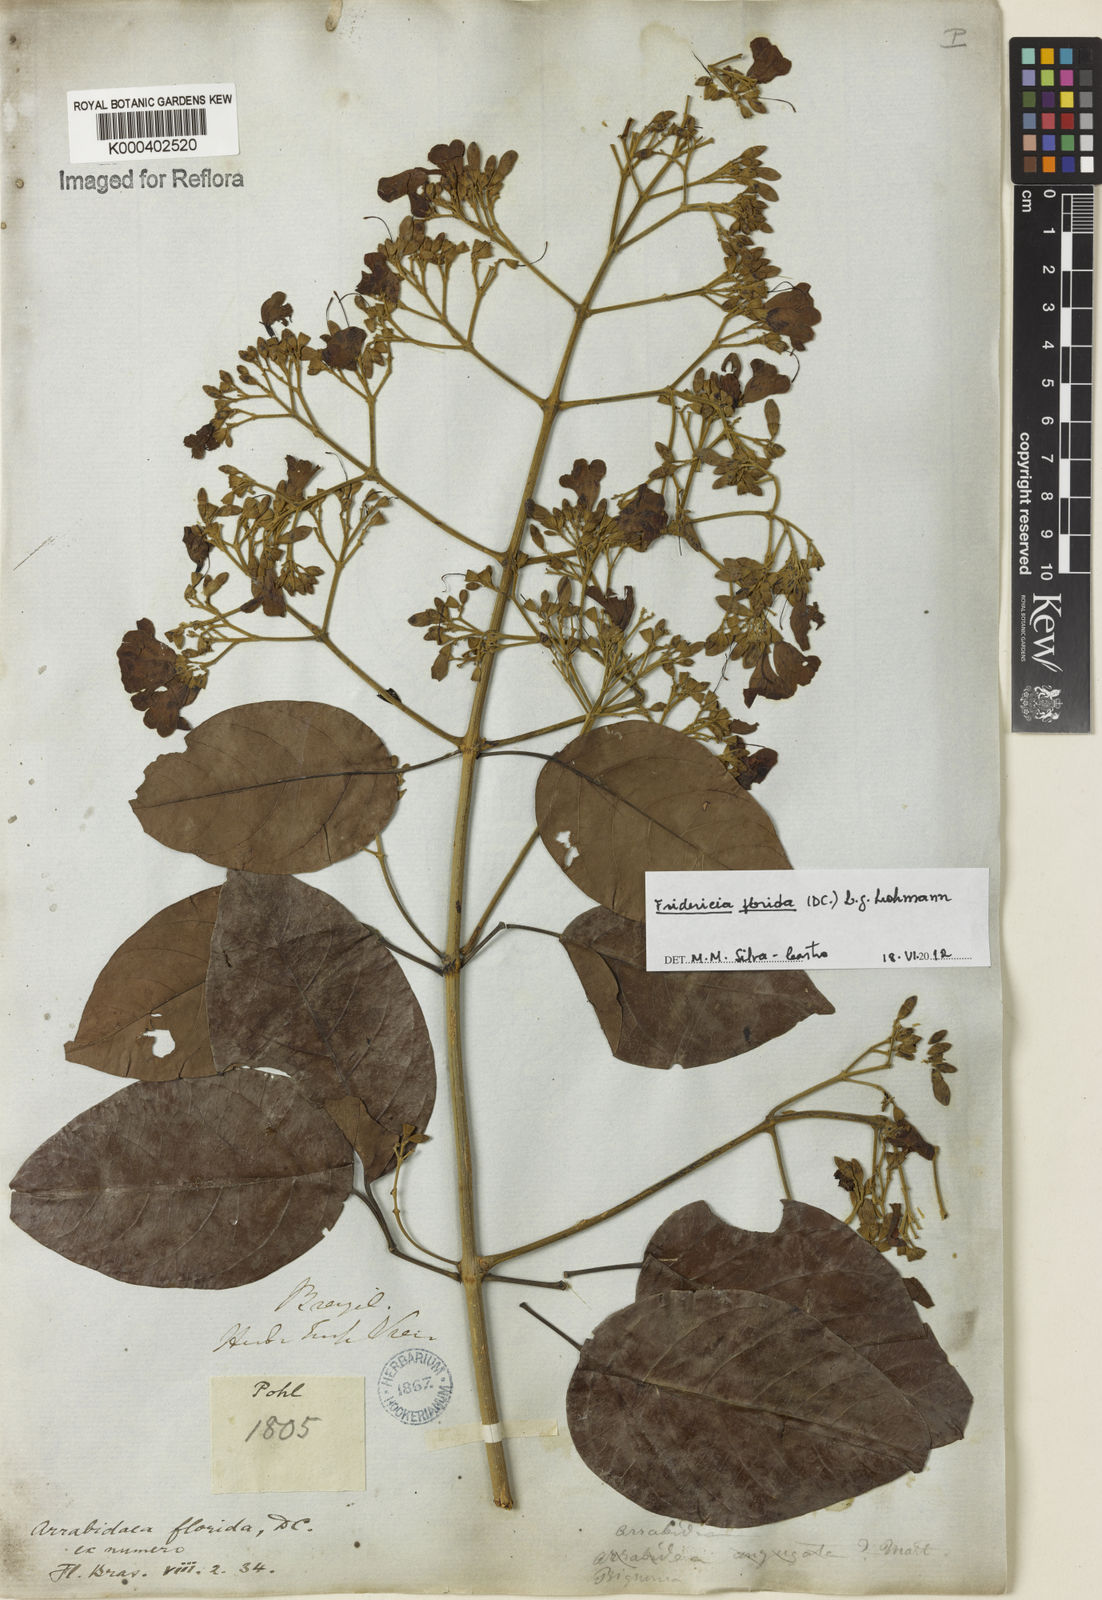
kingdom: Plantae
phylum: Tracheophyta
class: Magnoliopsida
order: Lamiales
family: Bignoniaceae
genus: Fridericia
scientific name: Fridericia florida
